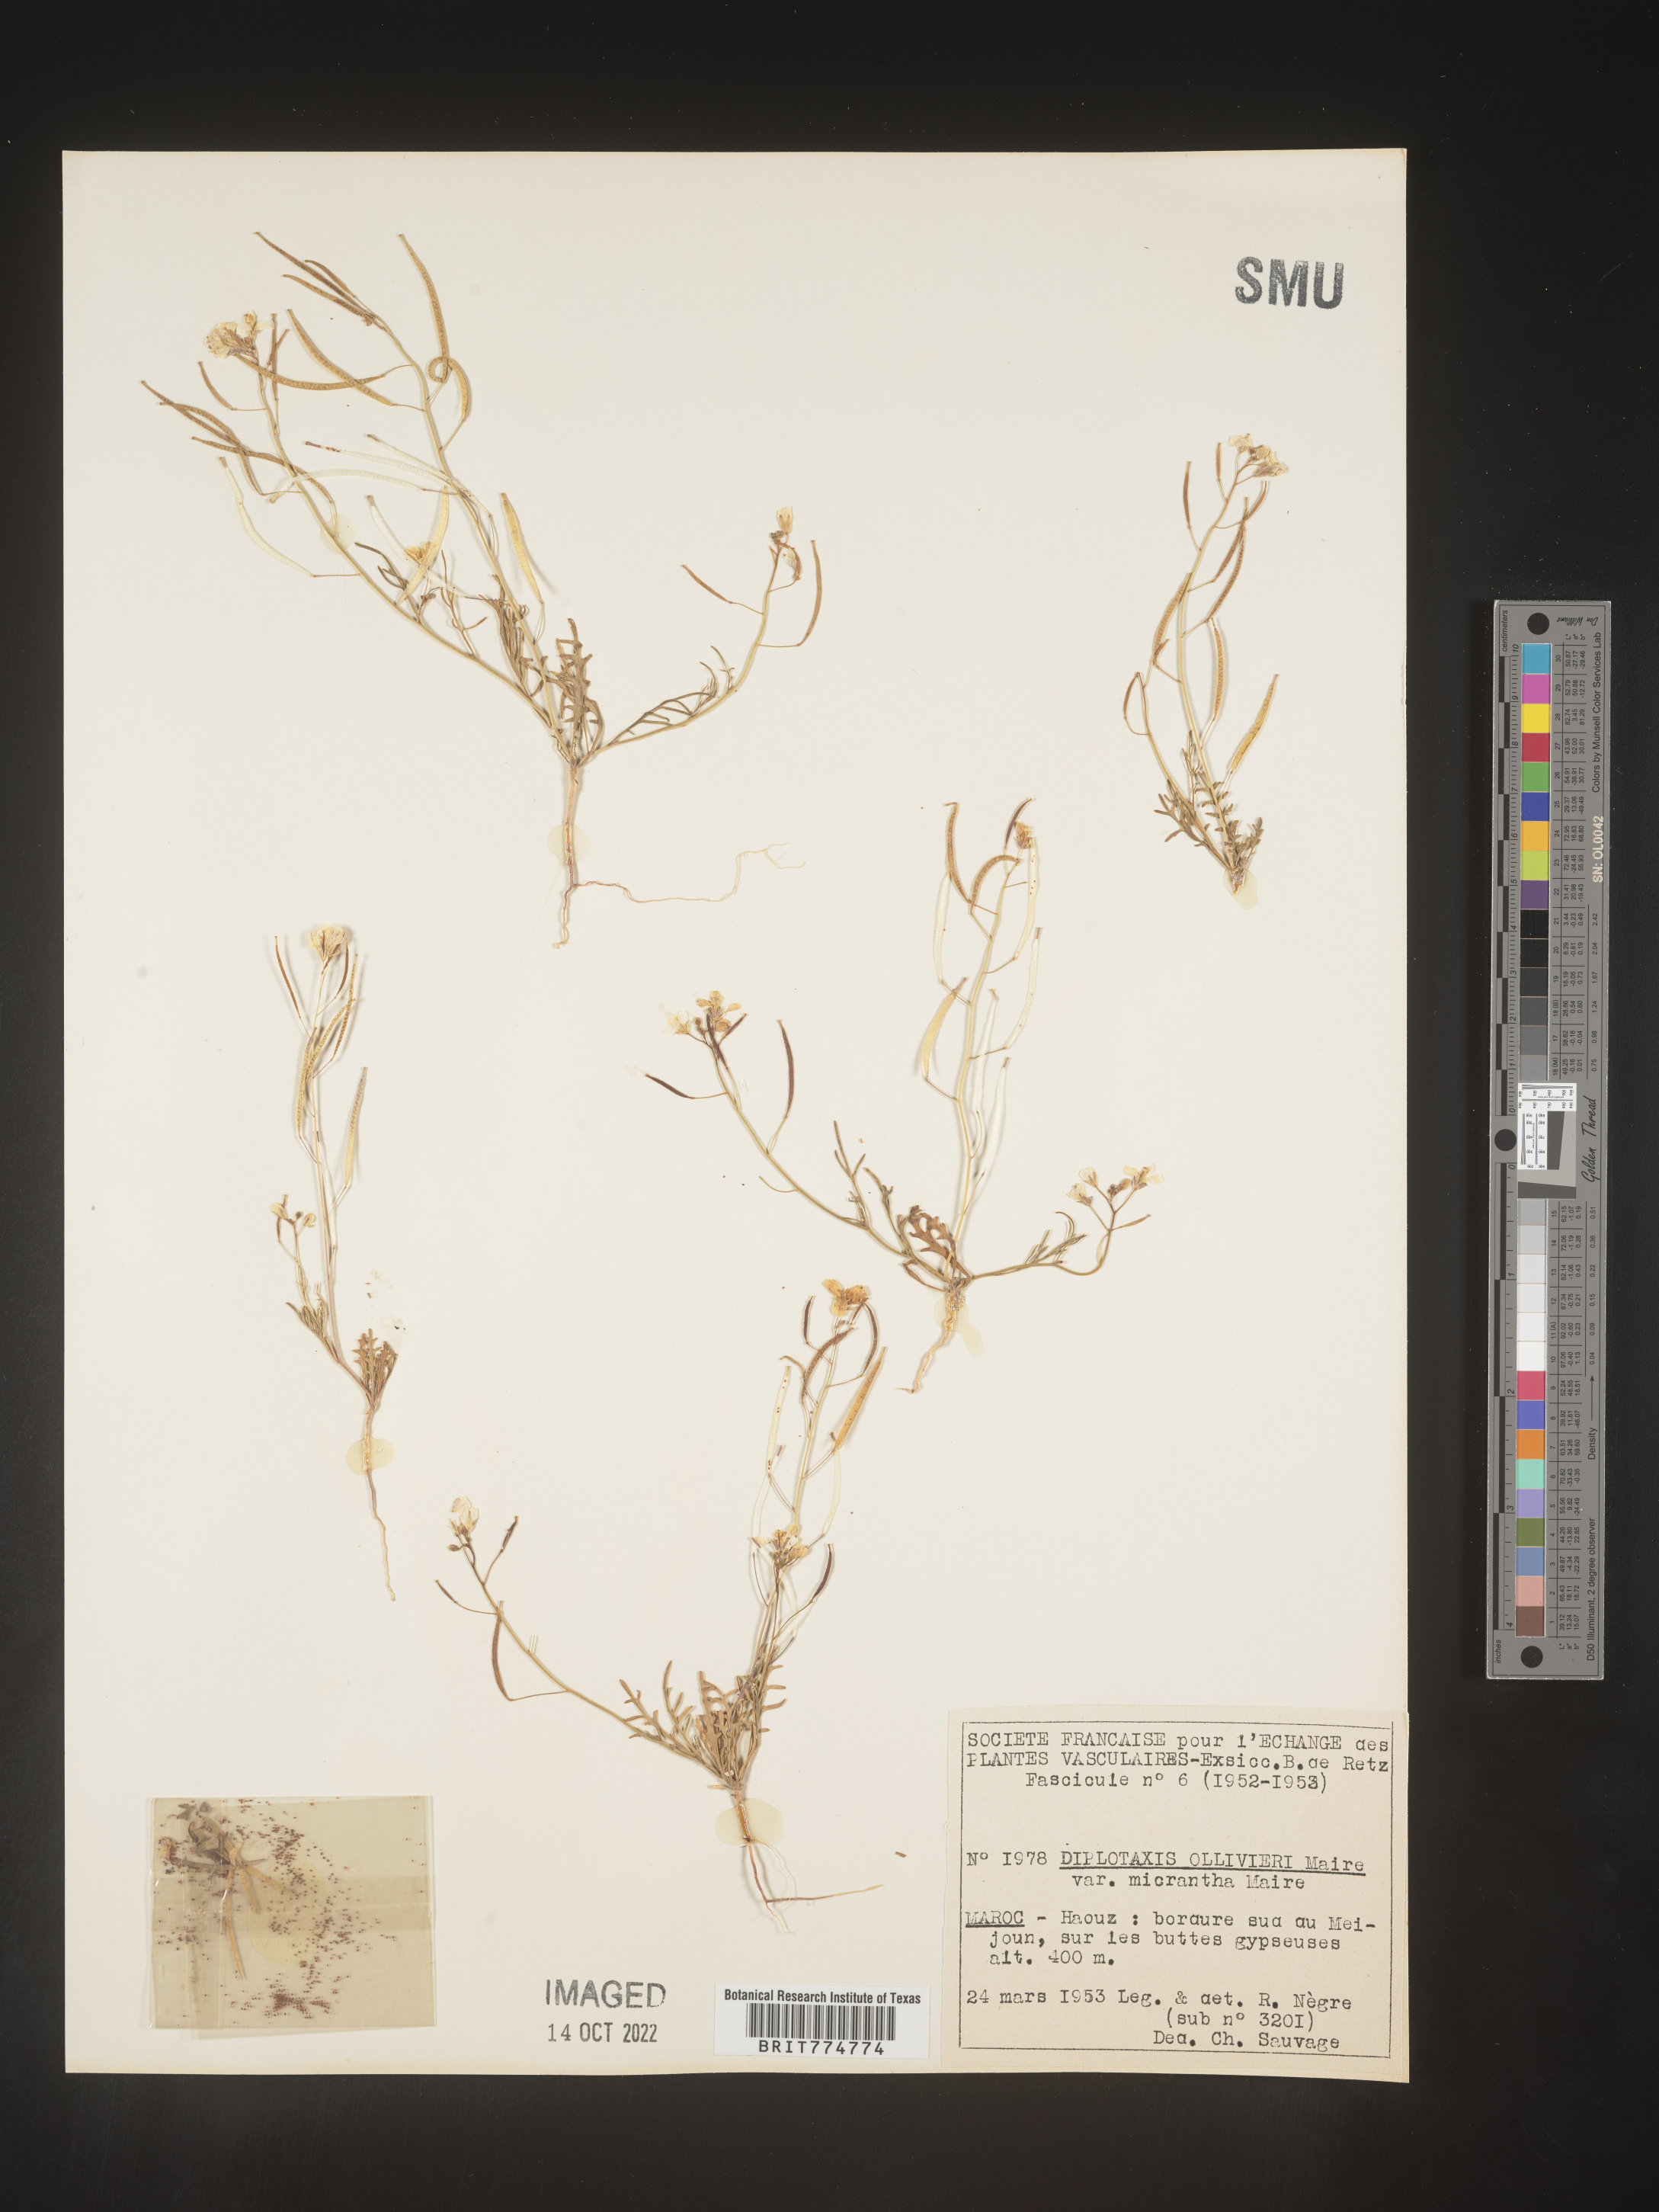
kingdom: Plantae
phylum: Tracheophyta
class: Magnoliopsida
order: Brassicales
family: Brassicaceae
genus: Diplotaxis
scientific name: Diplotaxis
